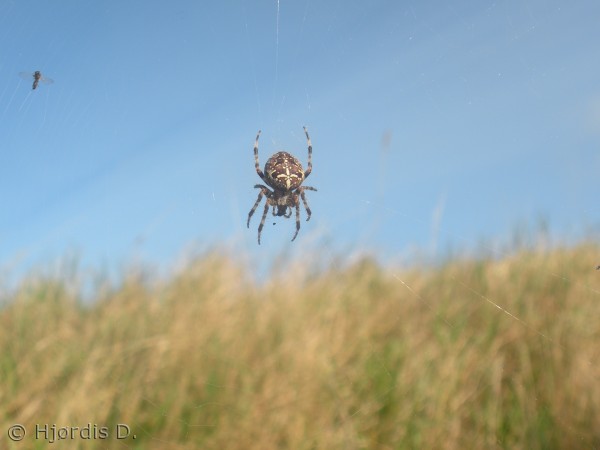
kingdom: Animalia
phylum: Arthropoda
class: Arachnida
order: Araneae
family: Araneidae
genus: Araneus
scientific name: Araneus diadematus
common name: Korsedderkop
